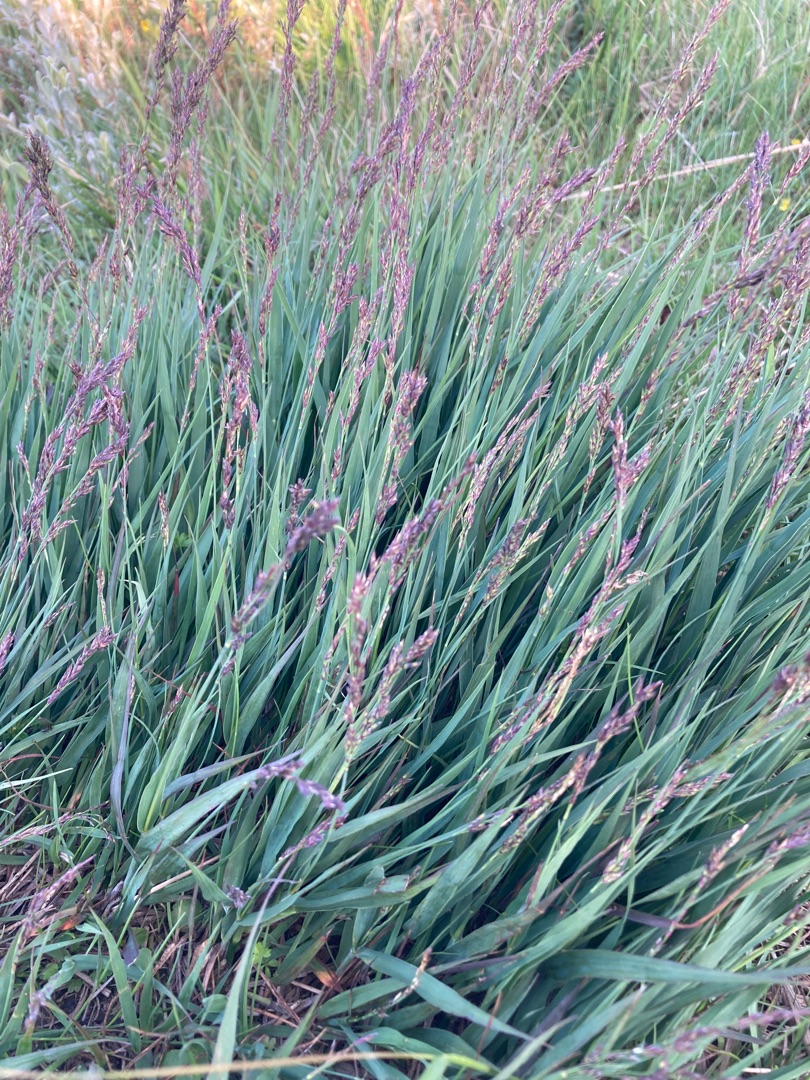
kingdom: Plantae
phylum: Tracheophyta
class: Liliopsida
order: Poales
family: Poaceae
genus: Molinia
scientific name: Molinia caerulea
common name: Blåtop
